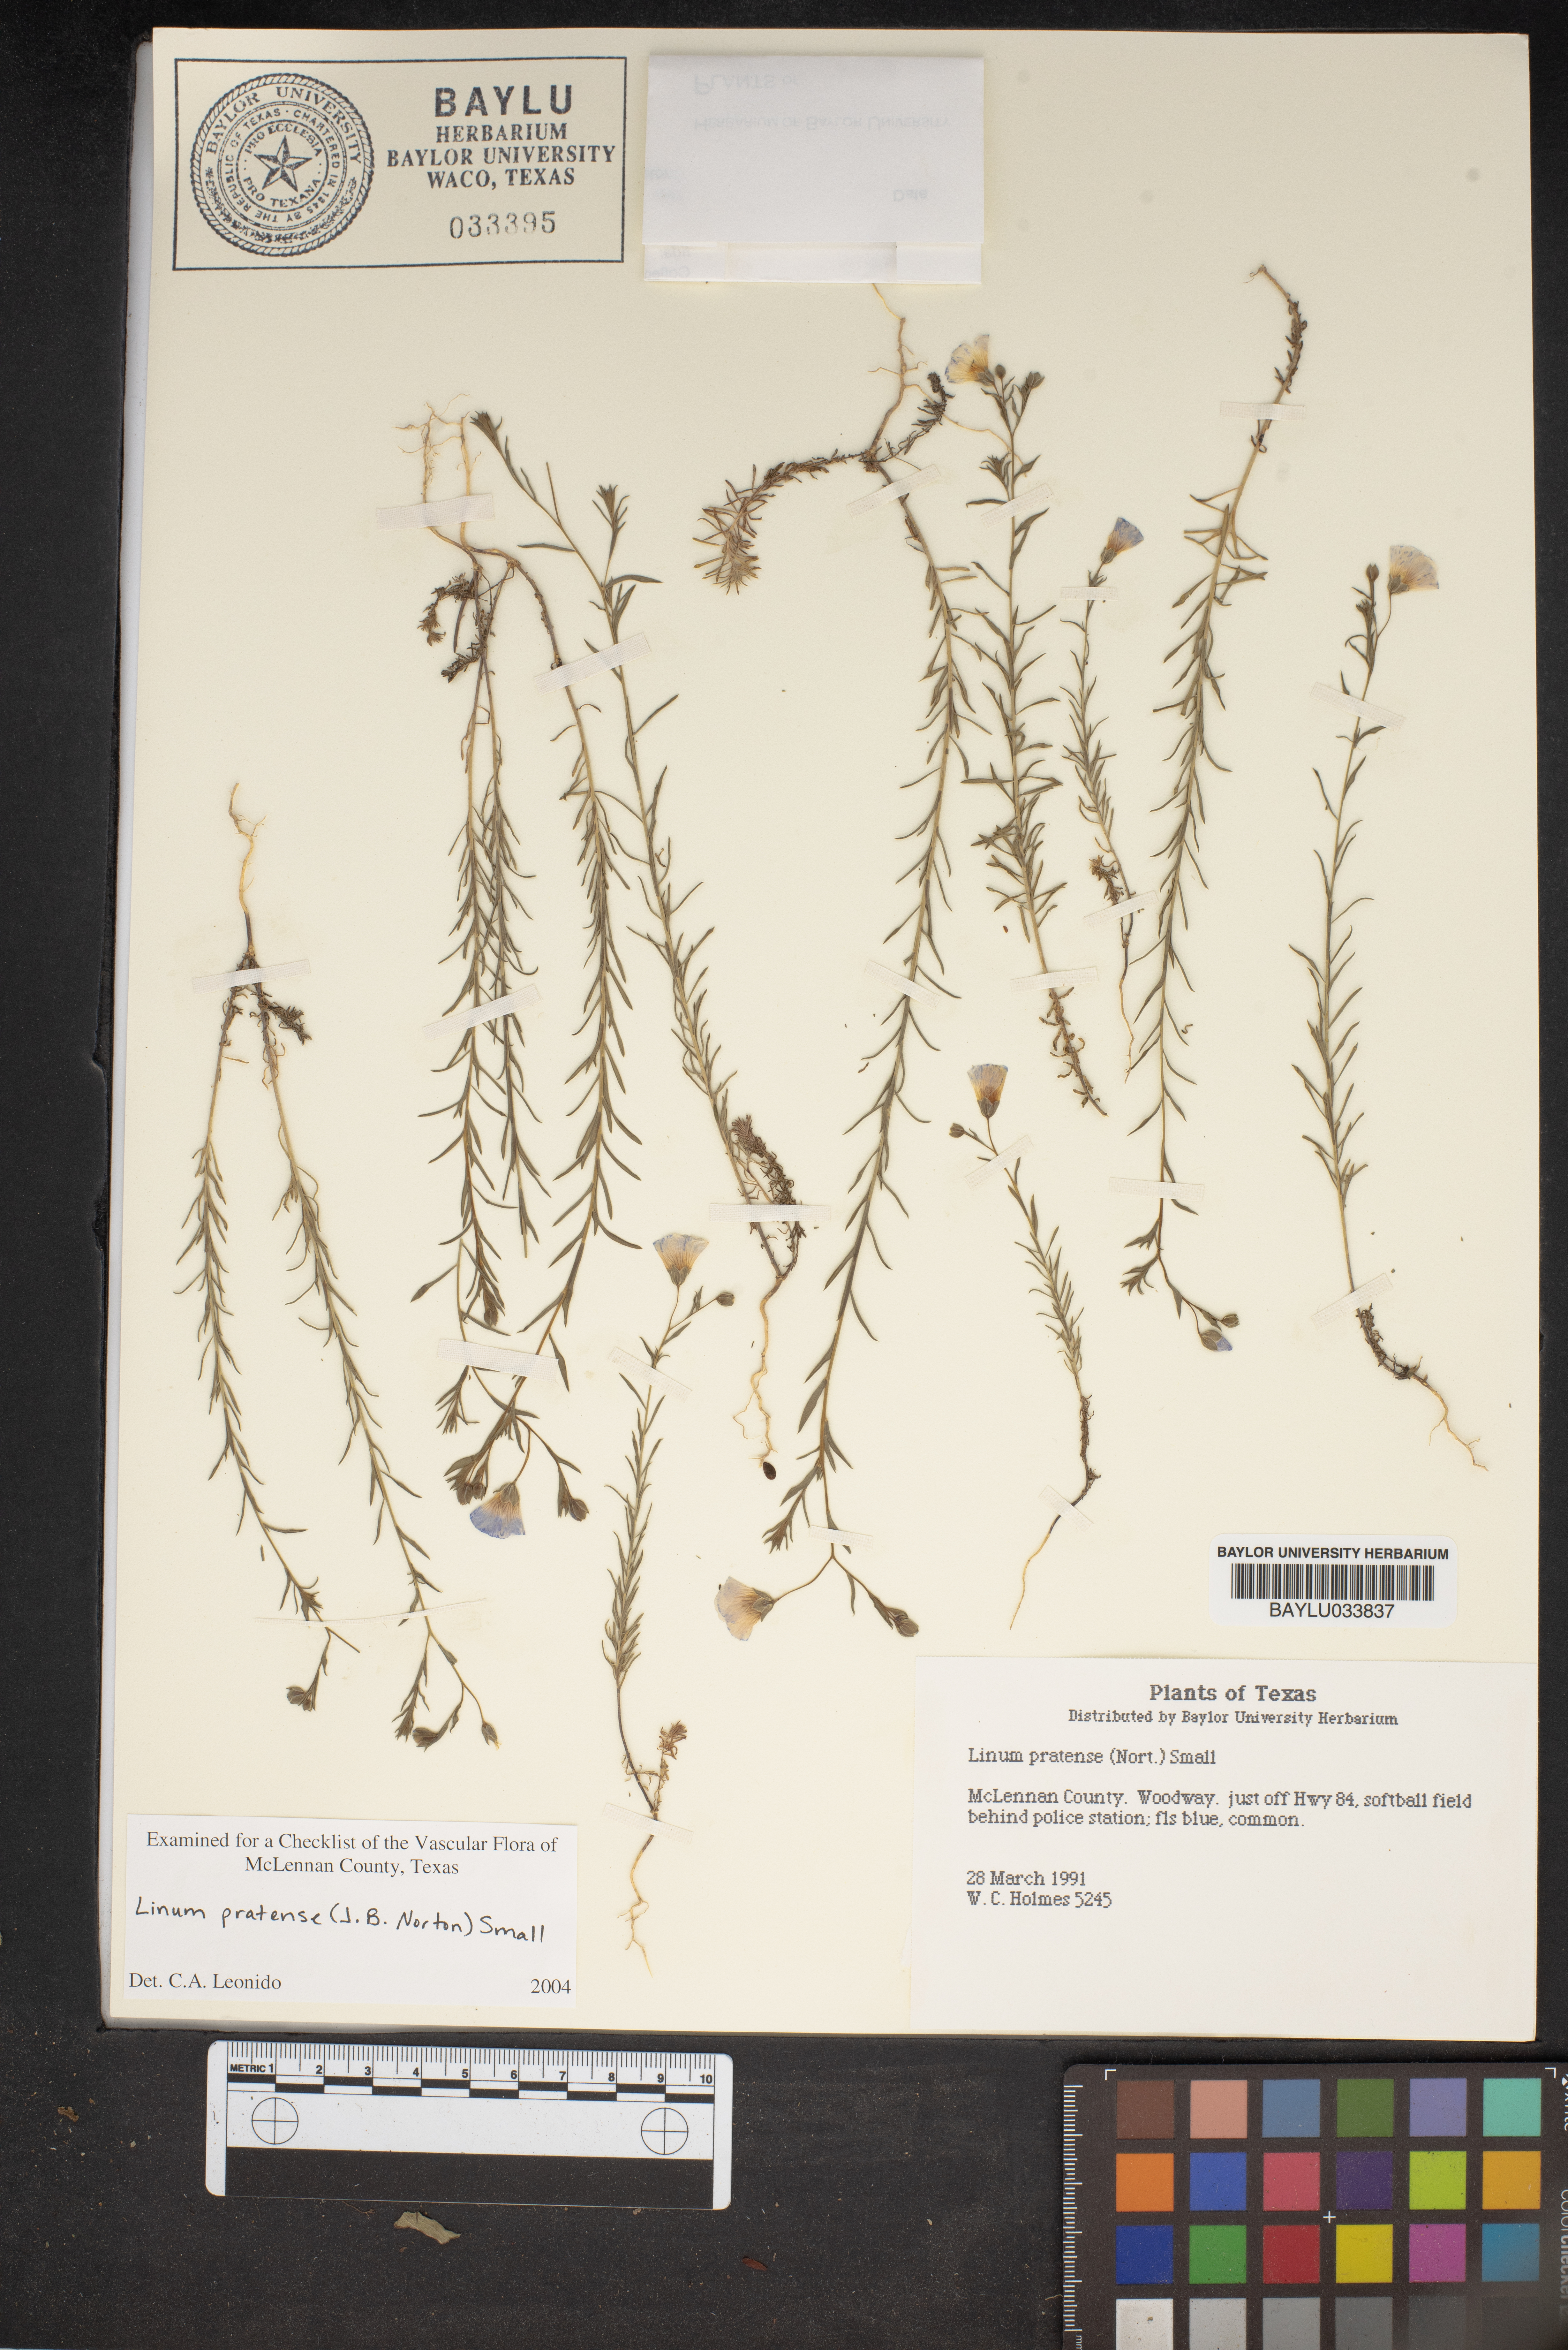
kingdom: Plantae
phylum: Tracheophyta
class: Magnoliopsida
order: Malpighiales
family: Linaceae
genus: Linum
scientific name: Linum pratense
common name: Norton's flax
